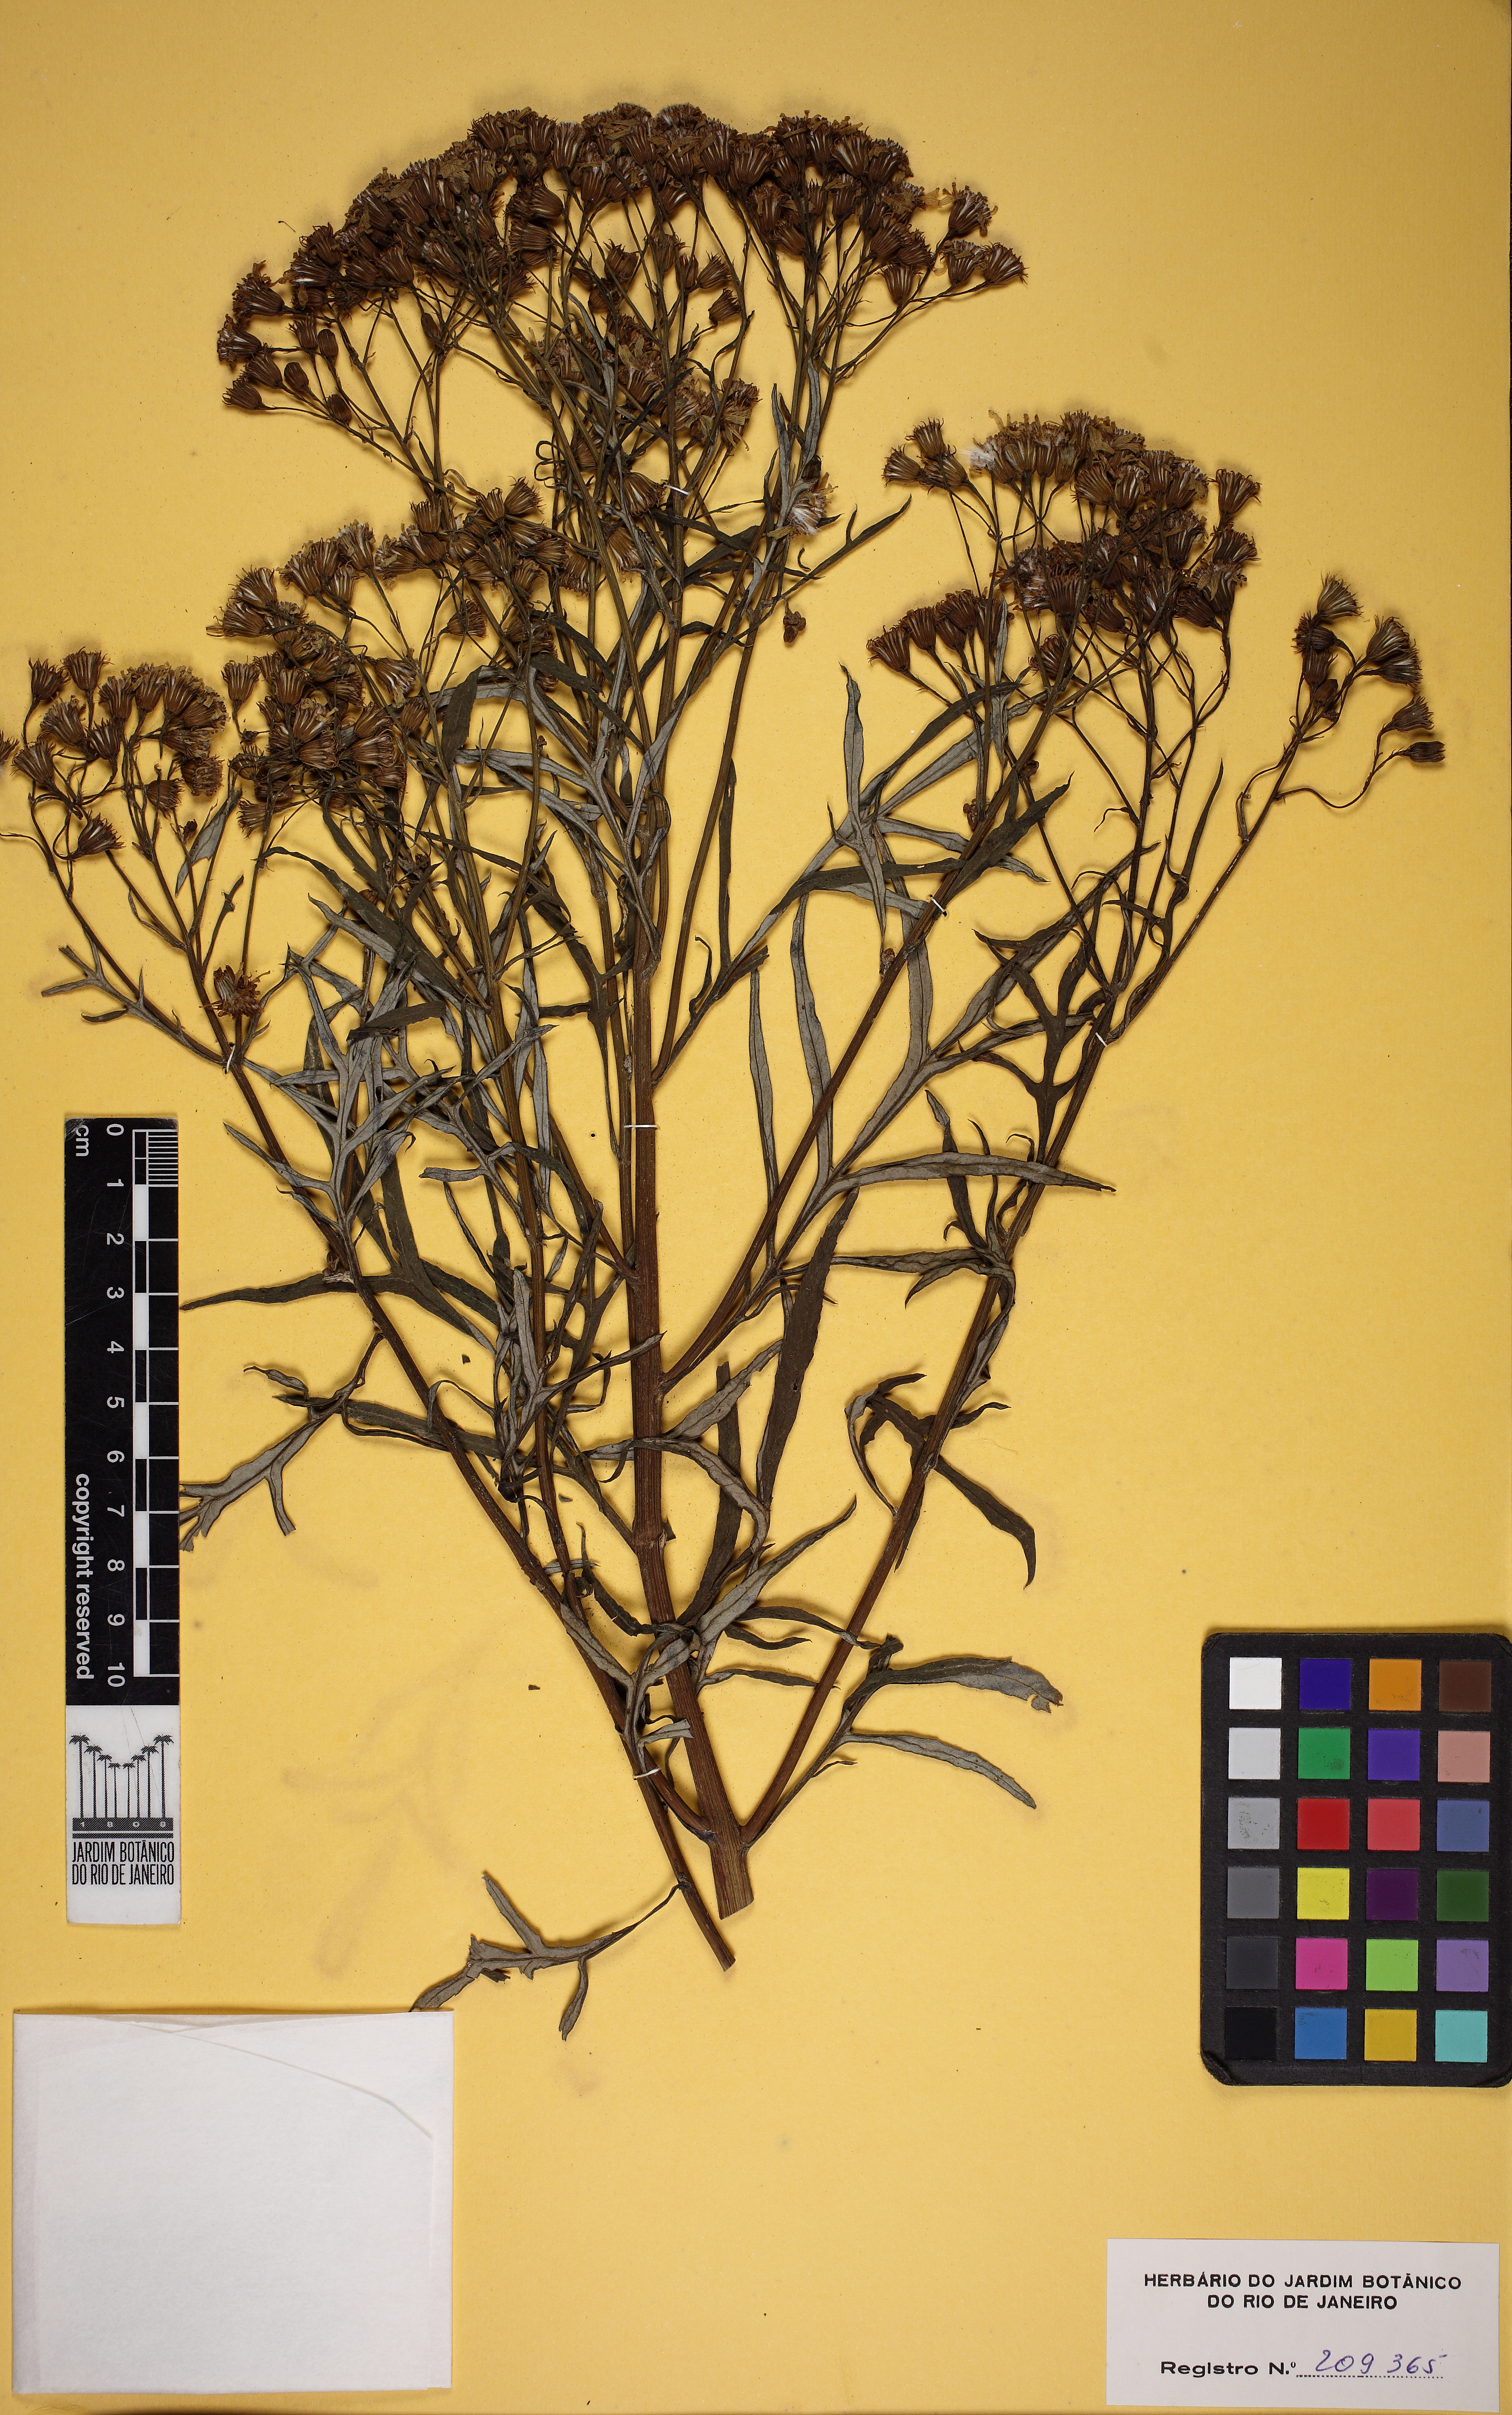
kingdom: Plantae
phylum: Tracheophyta
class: Magnoliopsida
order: Asterales
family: Asteraceae
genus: Senecio
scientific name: Senecio brasiliensis
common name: Hemp-leaf ragwort
